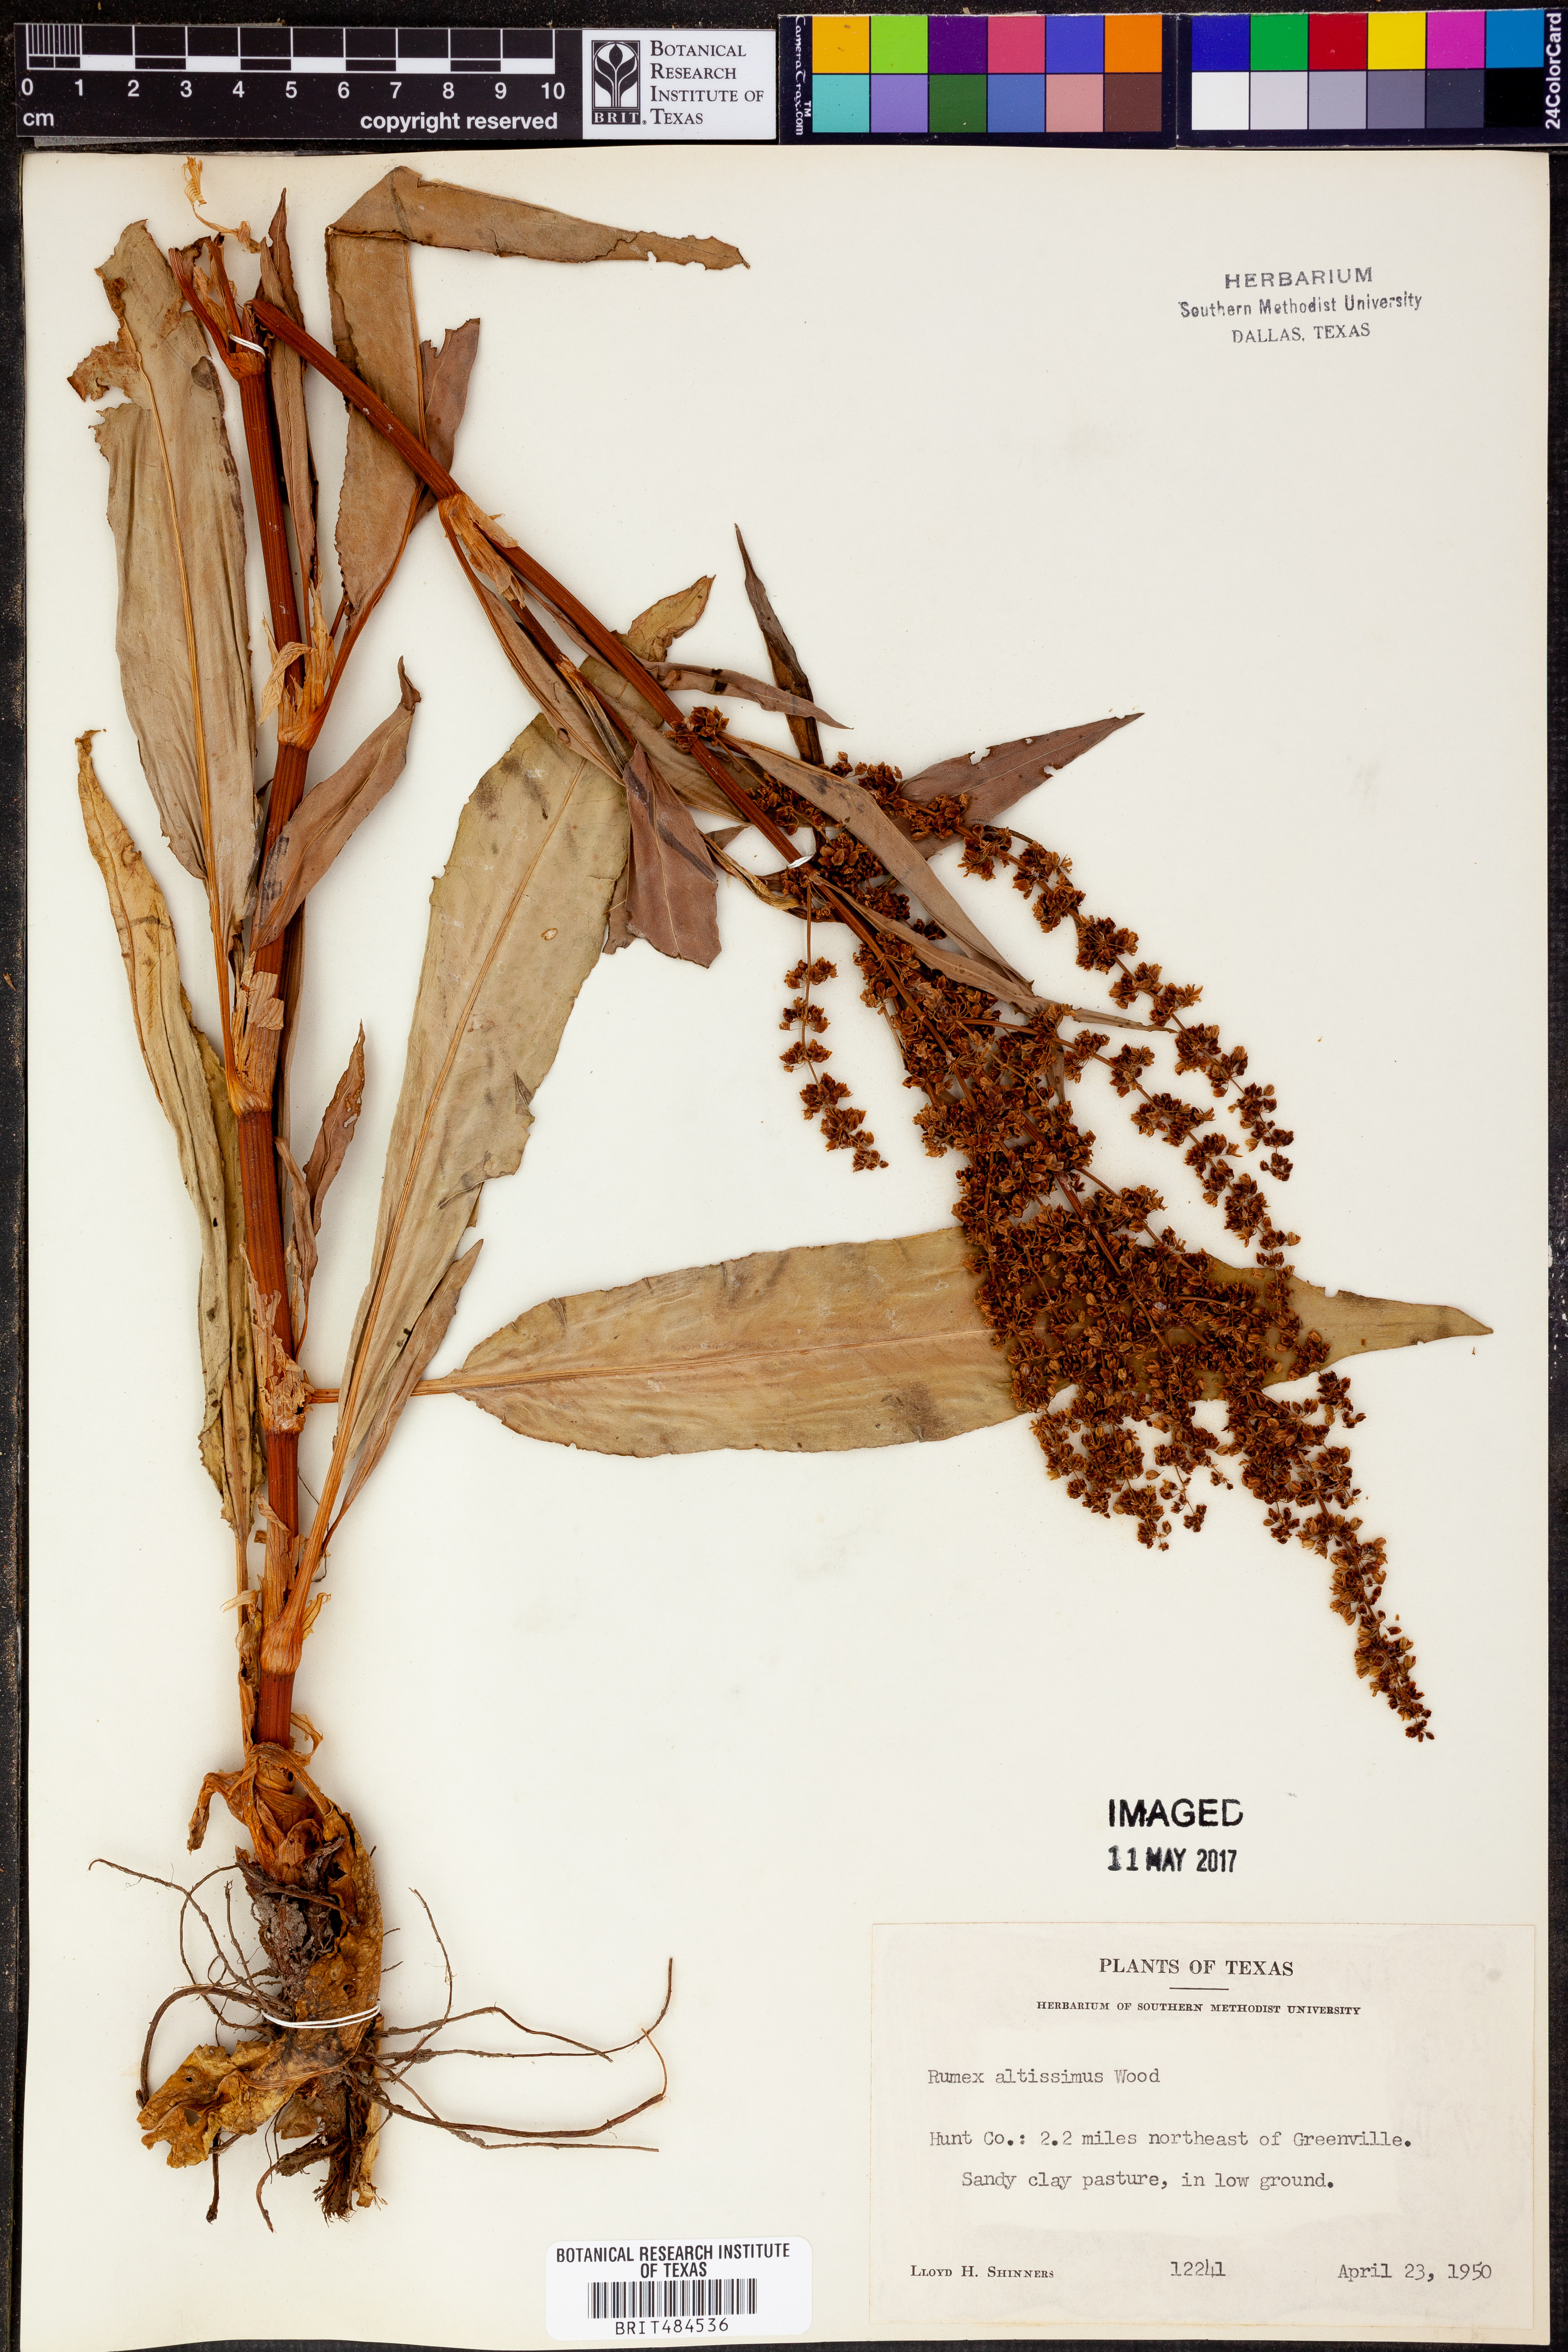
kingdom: Plantae
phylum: Tracheophyta
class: Magnoliopsida
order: Caryophyllales
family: Polygonaceae
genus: Rumex
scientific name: Rumex altissimus
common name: Smooth dock
